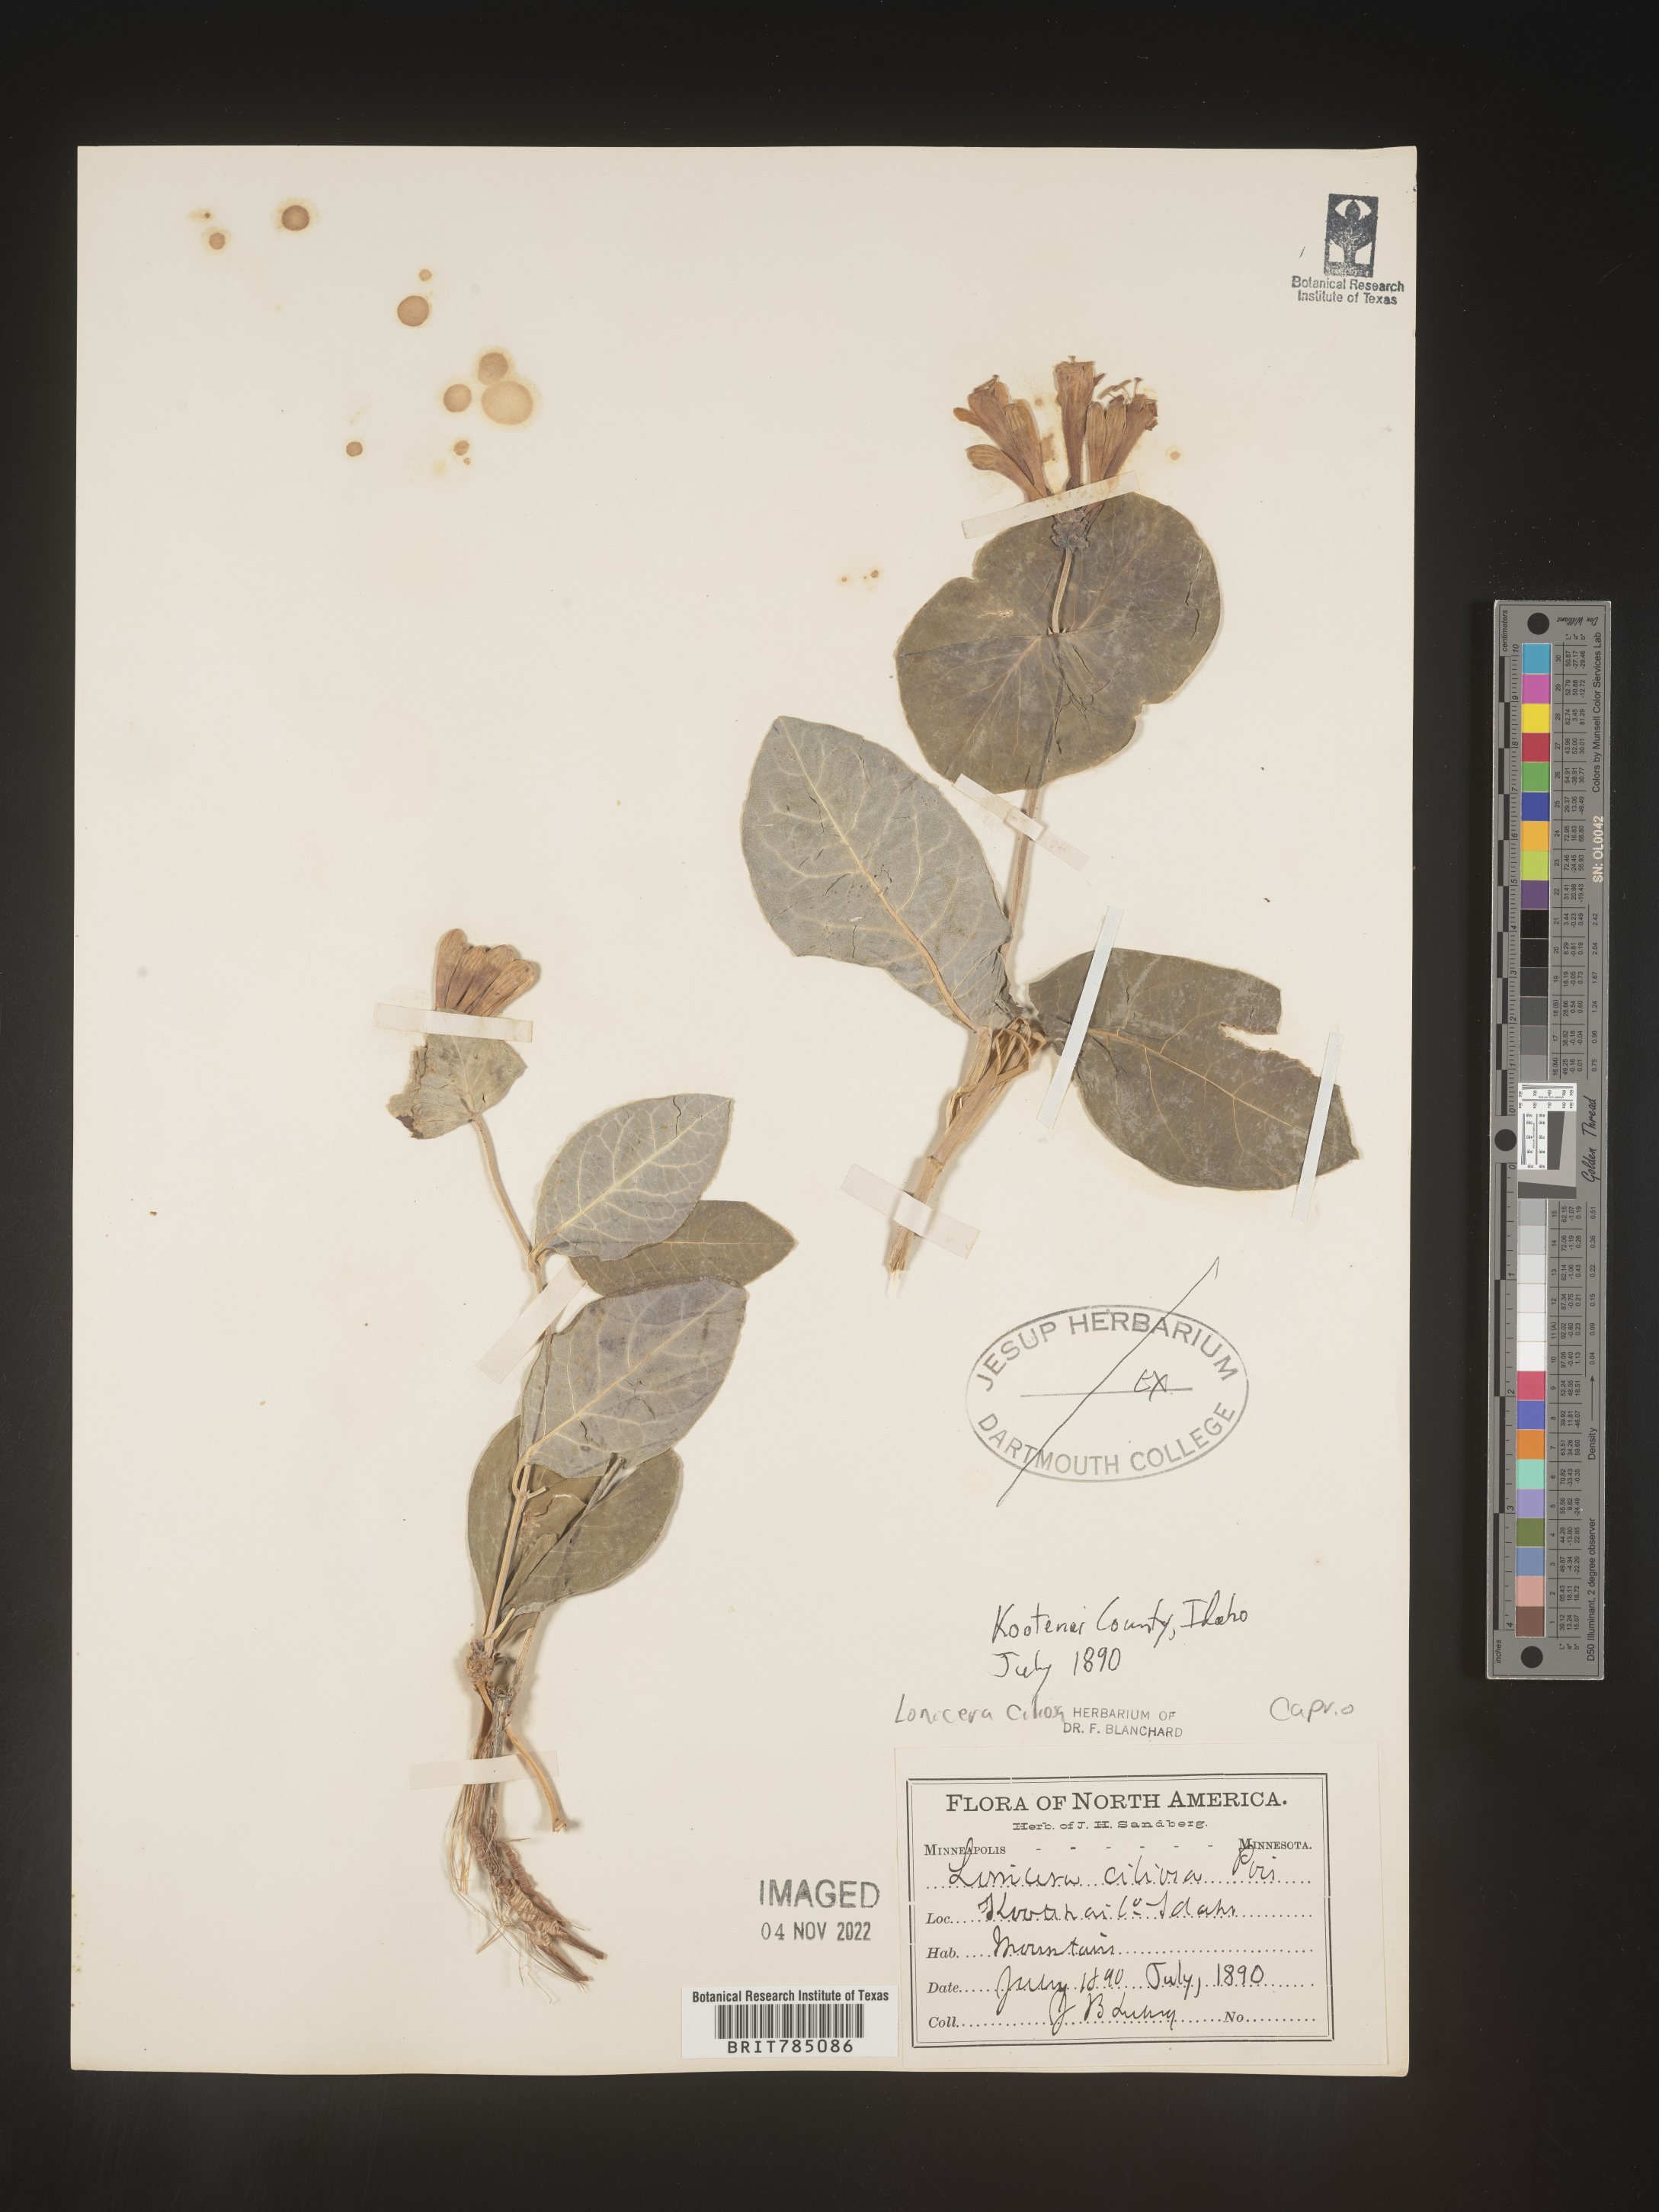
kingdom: Plantae
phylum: Tracheophyta
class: Magnoliopsida
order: Dipsacales
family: Caprifoliaceae
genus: Lonicera
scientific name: Lonicera
